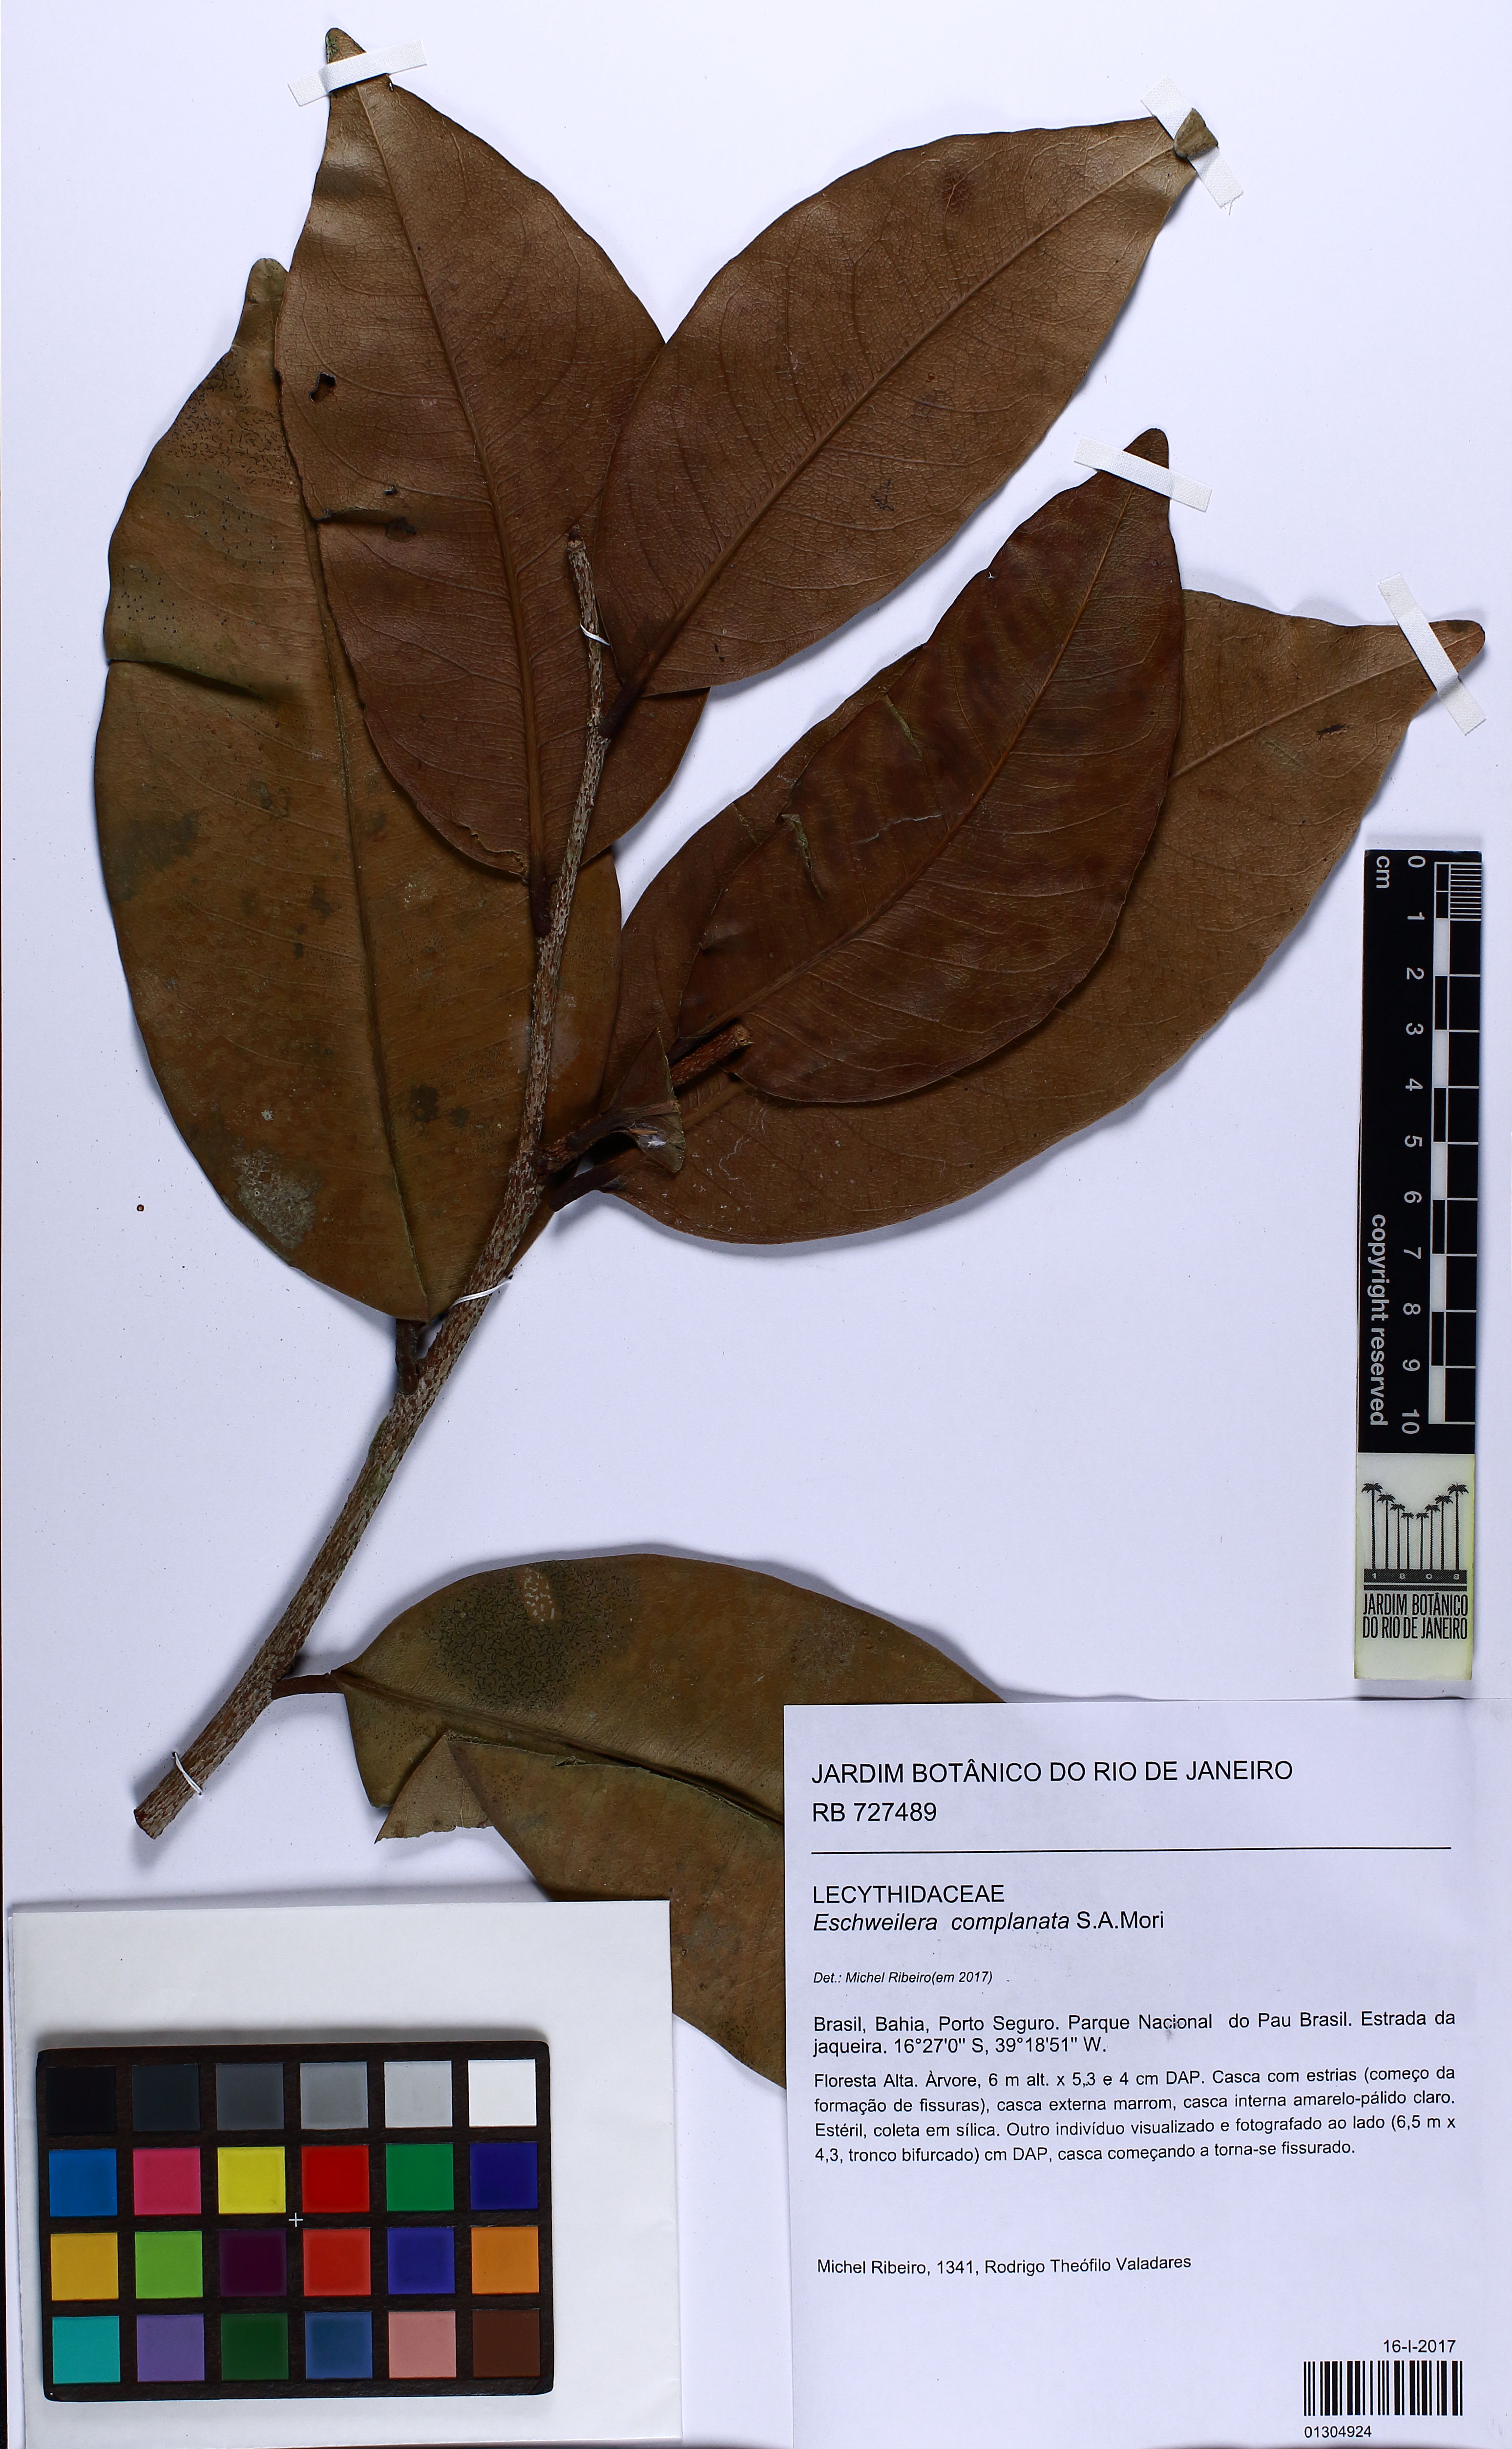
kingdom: Plantae
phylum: Tracheophyta
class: Magnoliopsida
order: Ericales
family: Lecythidaceae
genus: Eschweilera
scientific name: Eschweilera complanata
